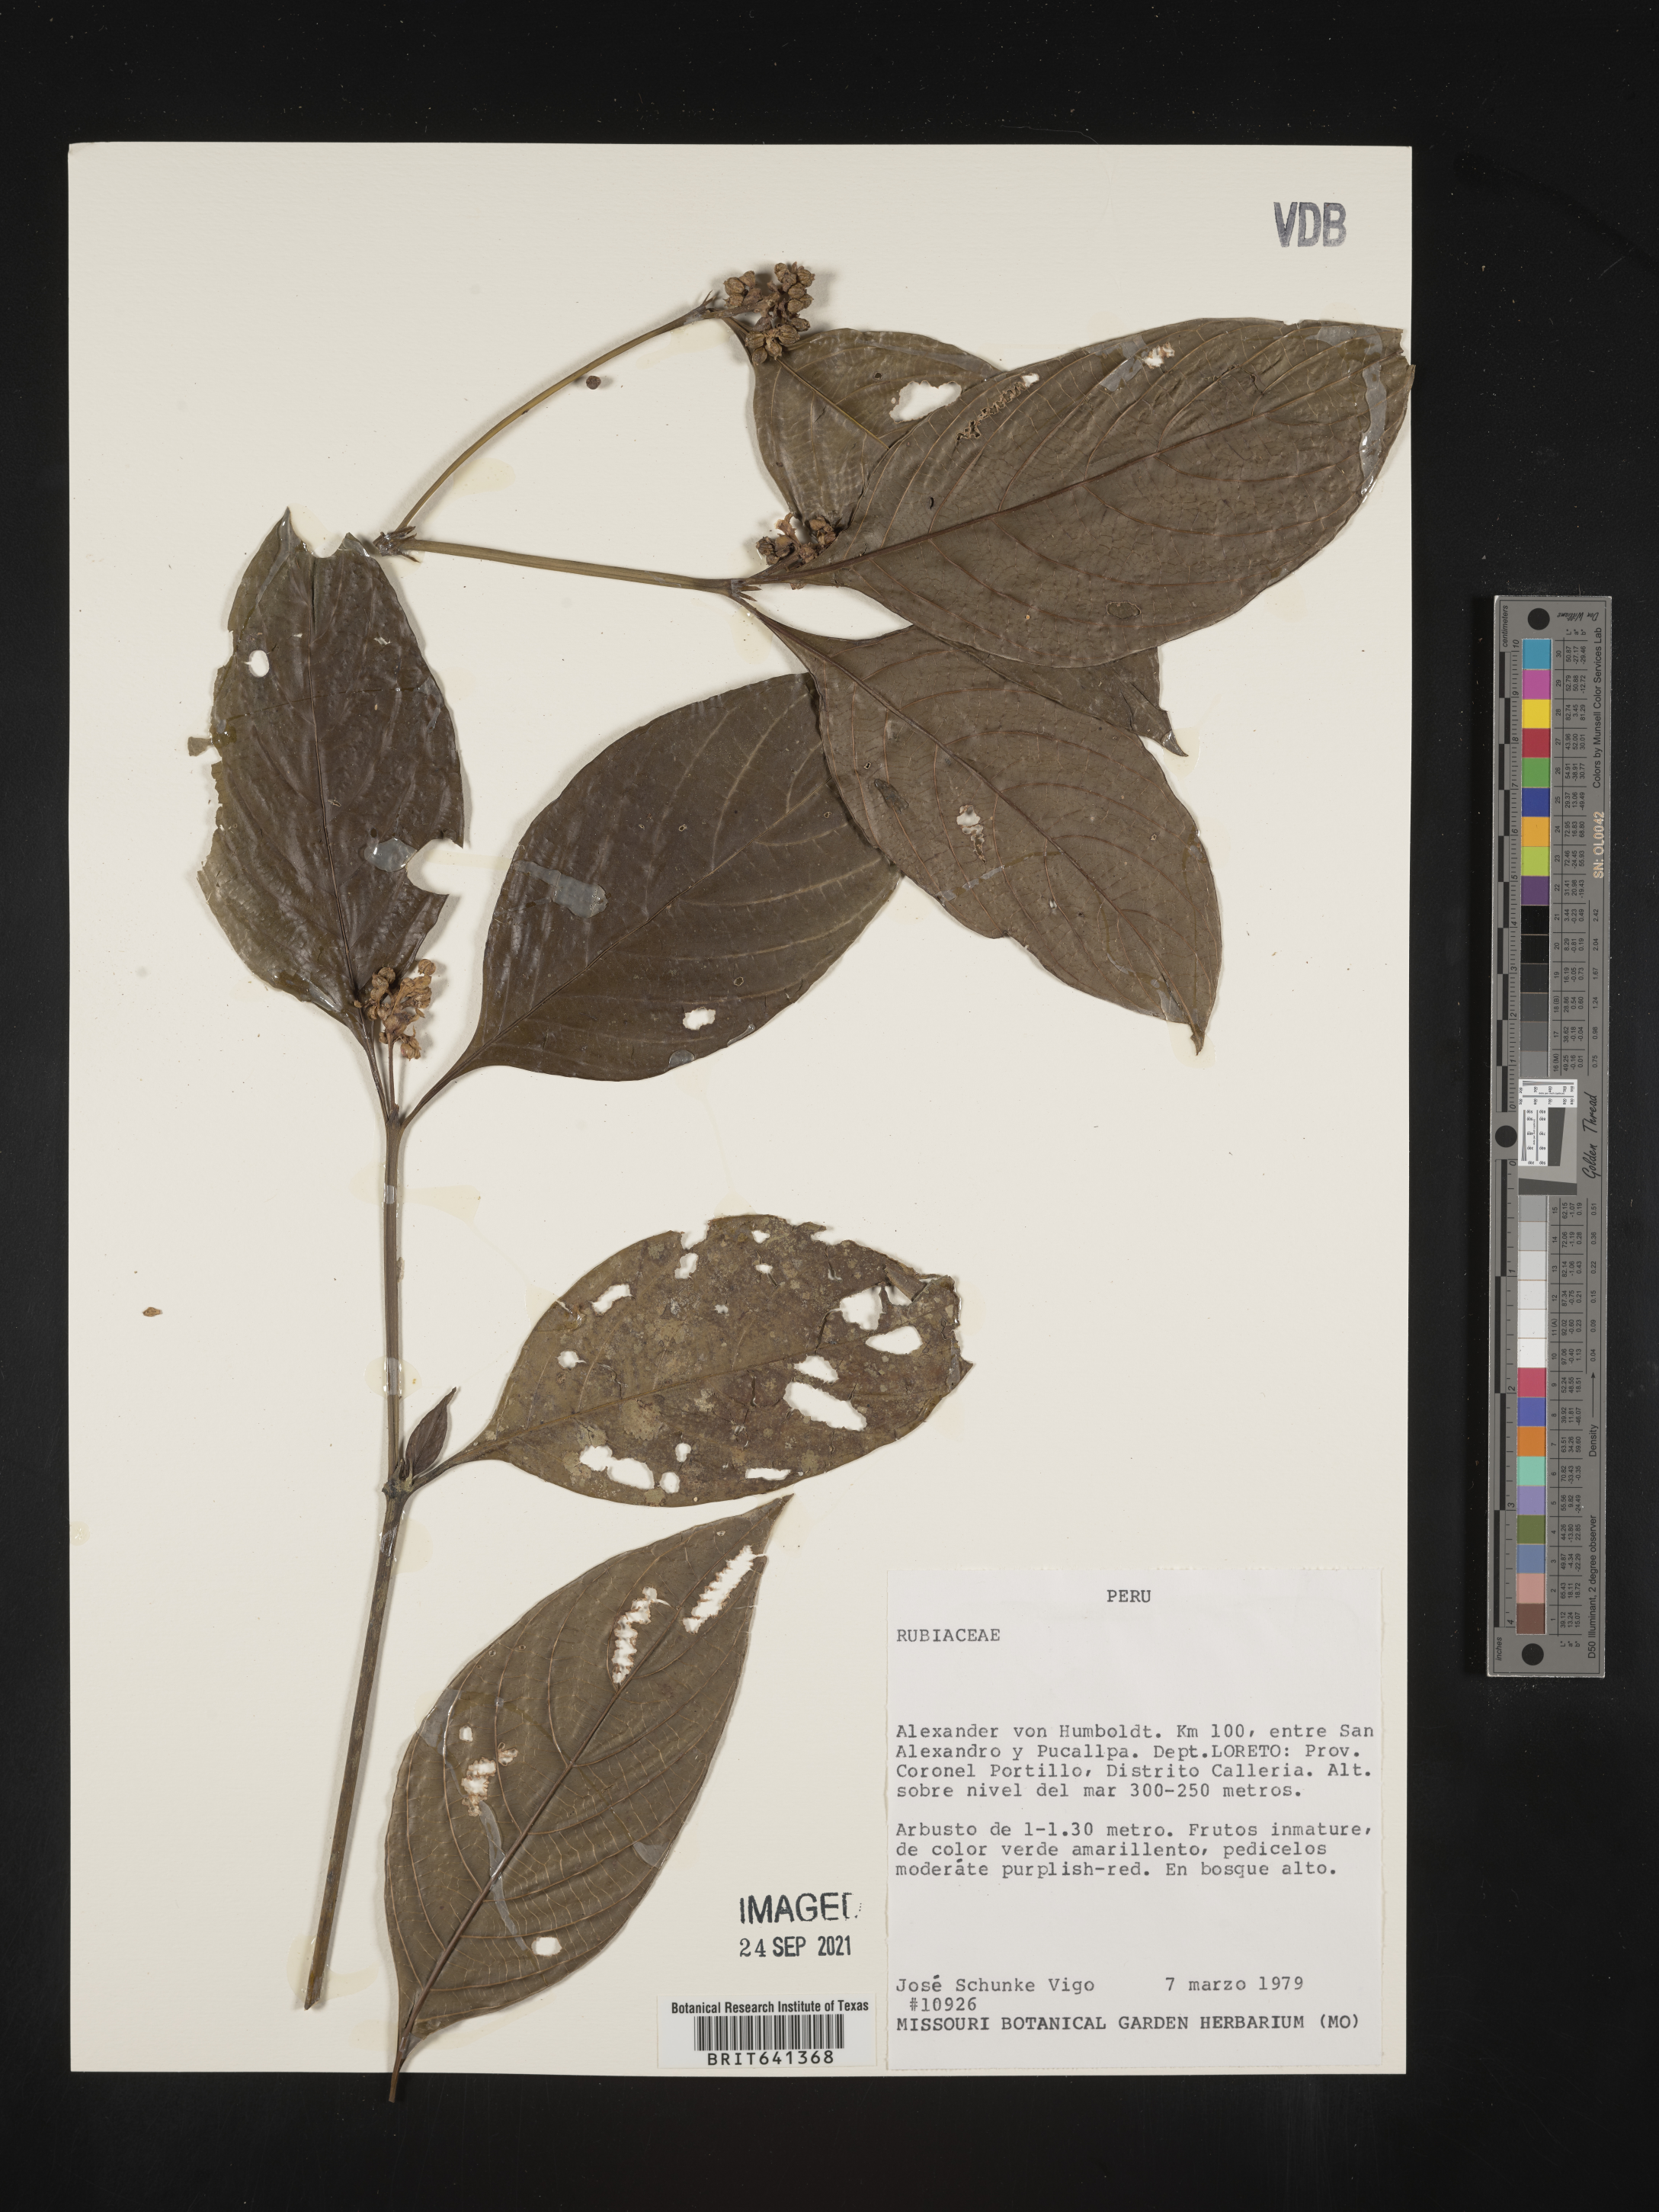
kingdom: Plantae
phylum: Tracheophyta
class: Magnoliopsida
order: Gentianales
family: Rubiaceae
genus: Palicourea
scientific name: Palicourea tenerior
